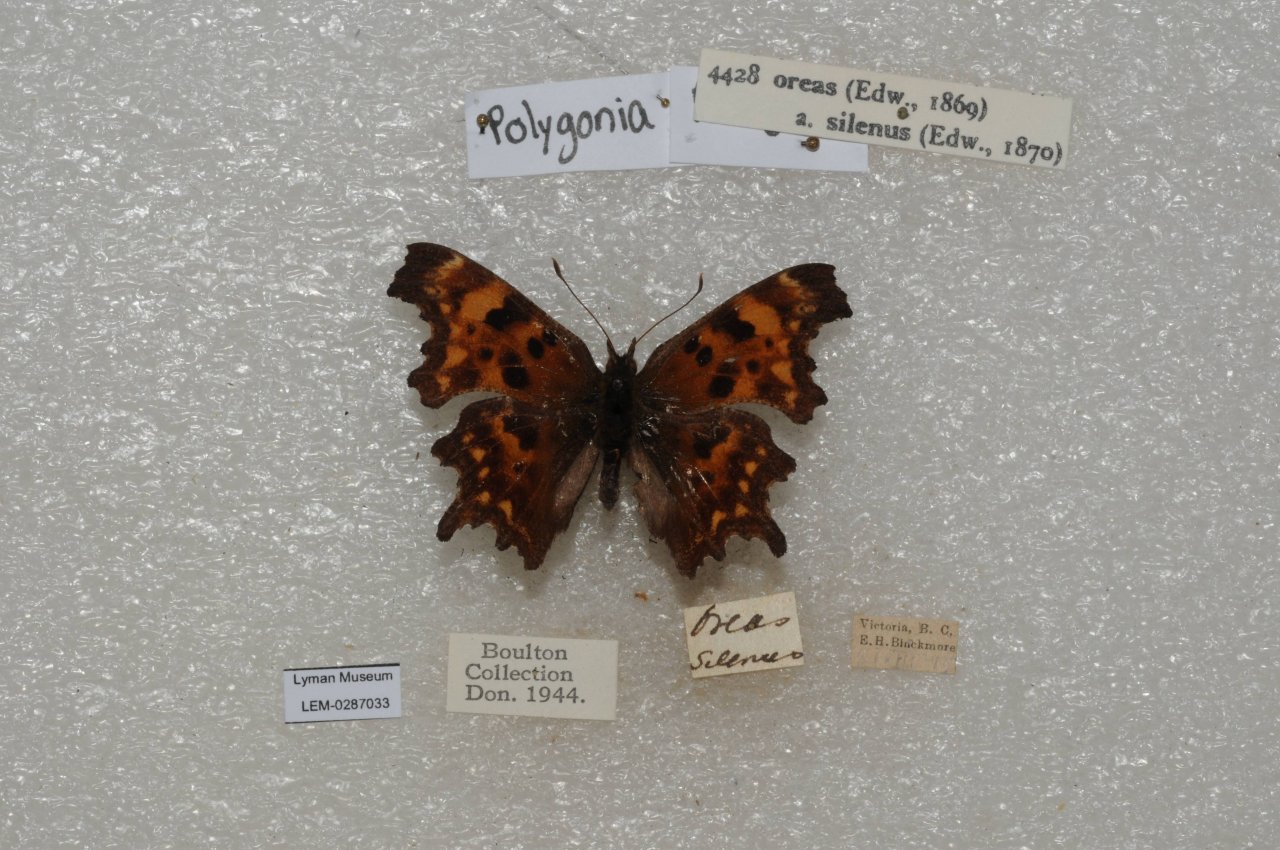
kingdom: Animalia
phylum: Arthropoda
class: Insecta
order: Lepidoptera
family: Nymphalidae
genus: Polygonia
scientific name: Polygonia oreas
